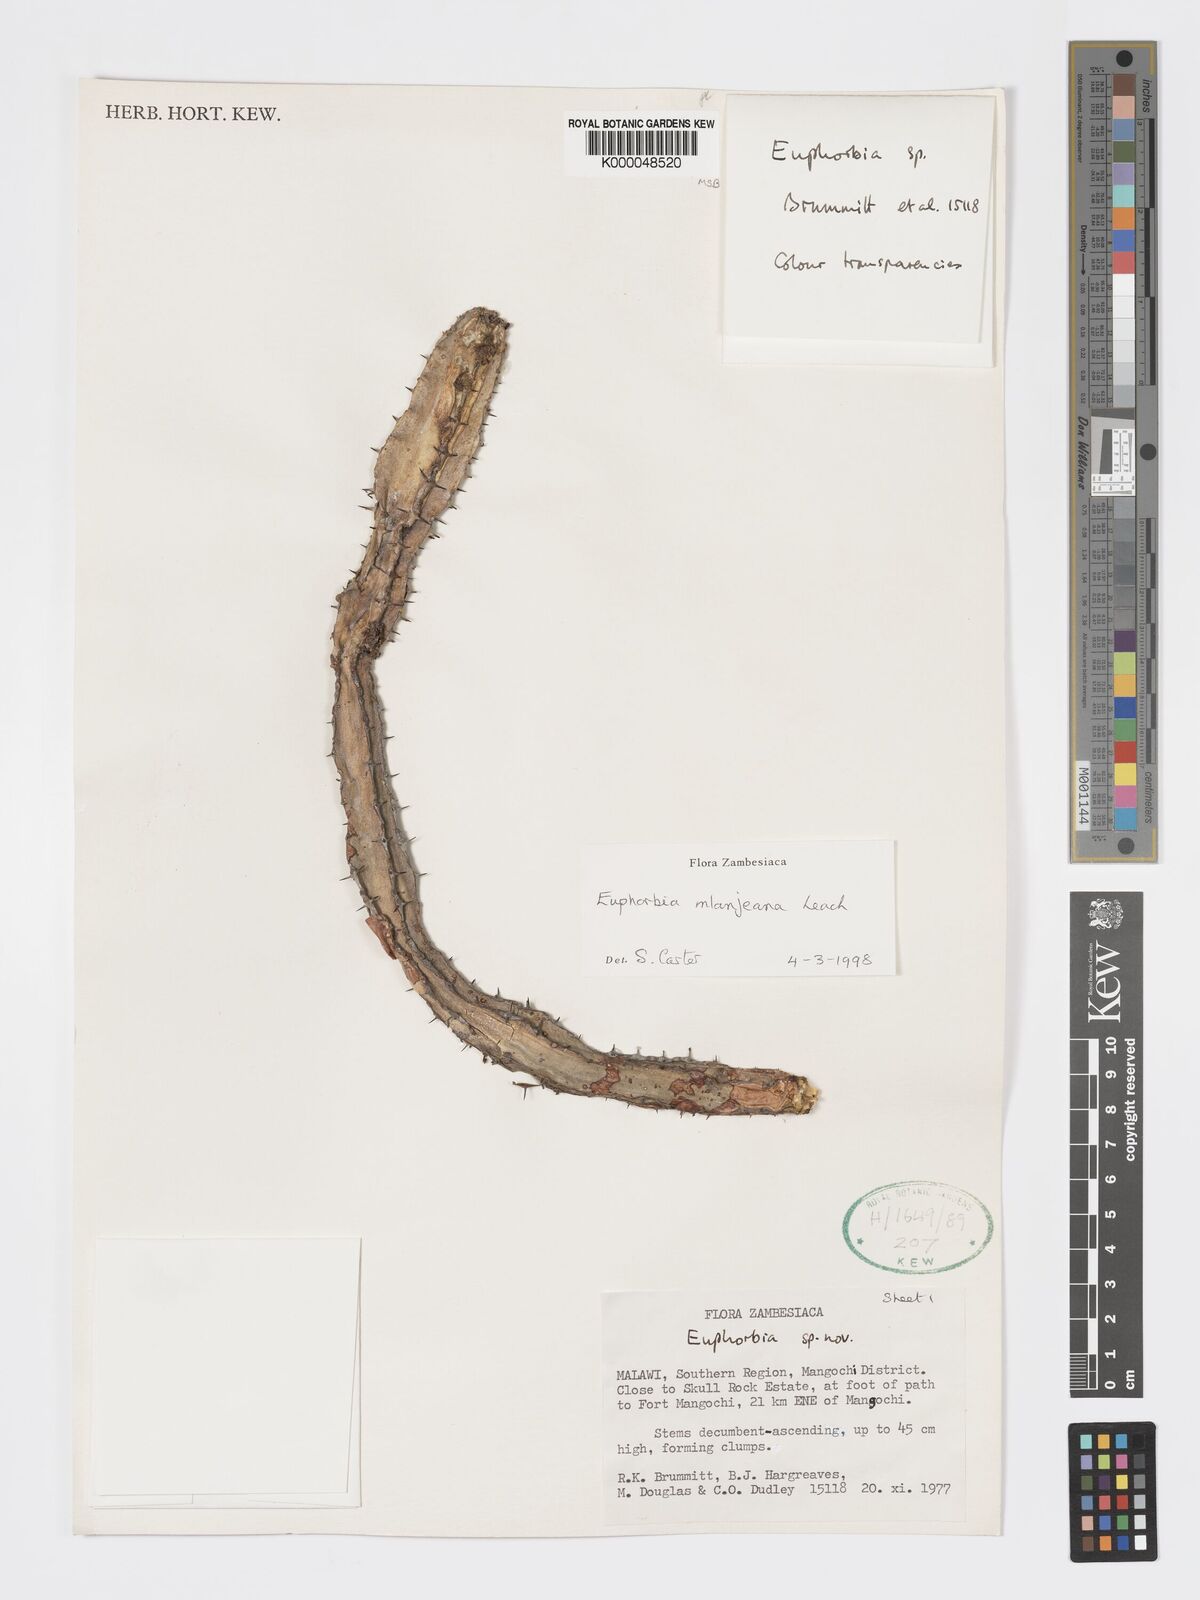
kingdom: Plantae
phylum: Tracheophyta
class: Magnoliopsida
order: Malpighiales
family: Euphorbiaceae
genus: Euphorbia
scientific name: Euphorbia mlanjeana
